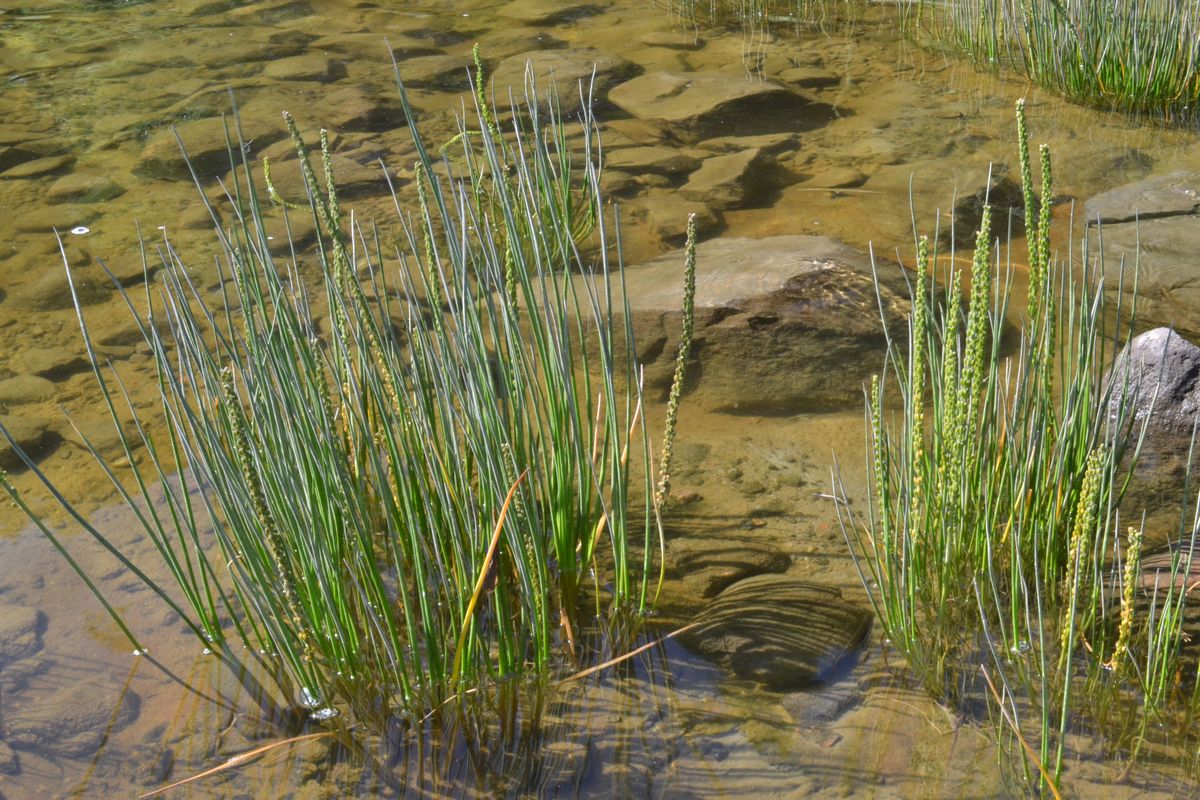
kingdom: Plantae
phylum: Tracheophyta
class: Liliopsida
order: Alismatales
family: Juncaginaceae
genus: Triglochin
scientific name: Triglochin maritima
